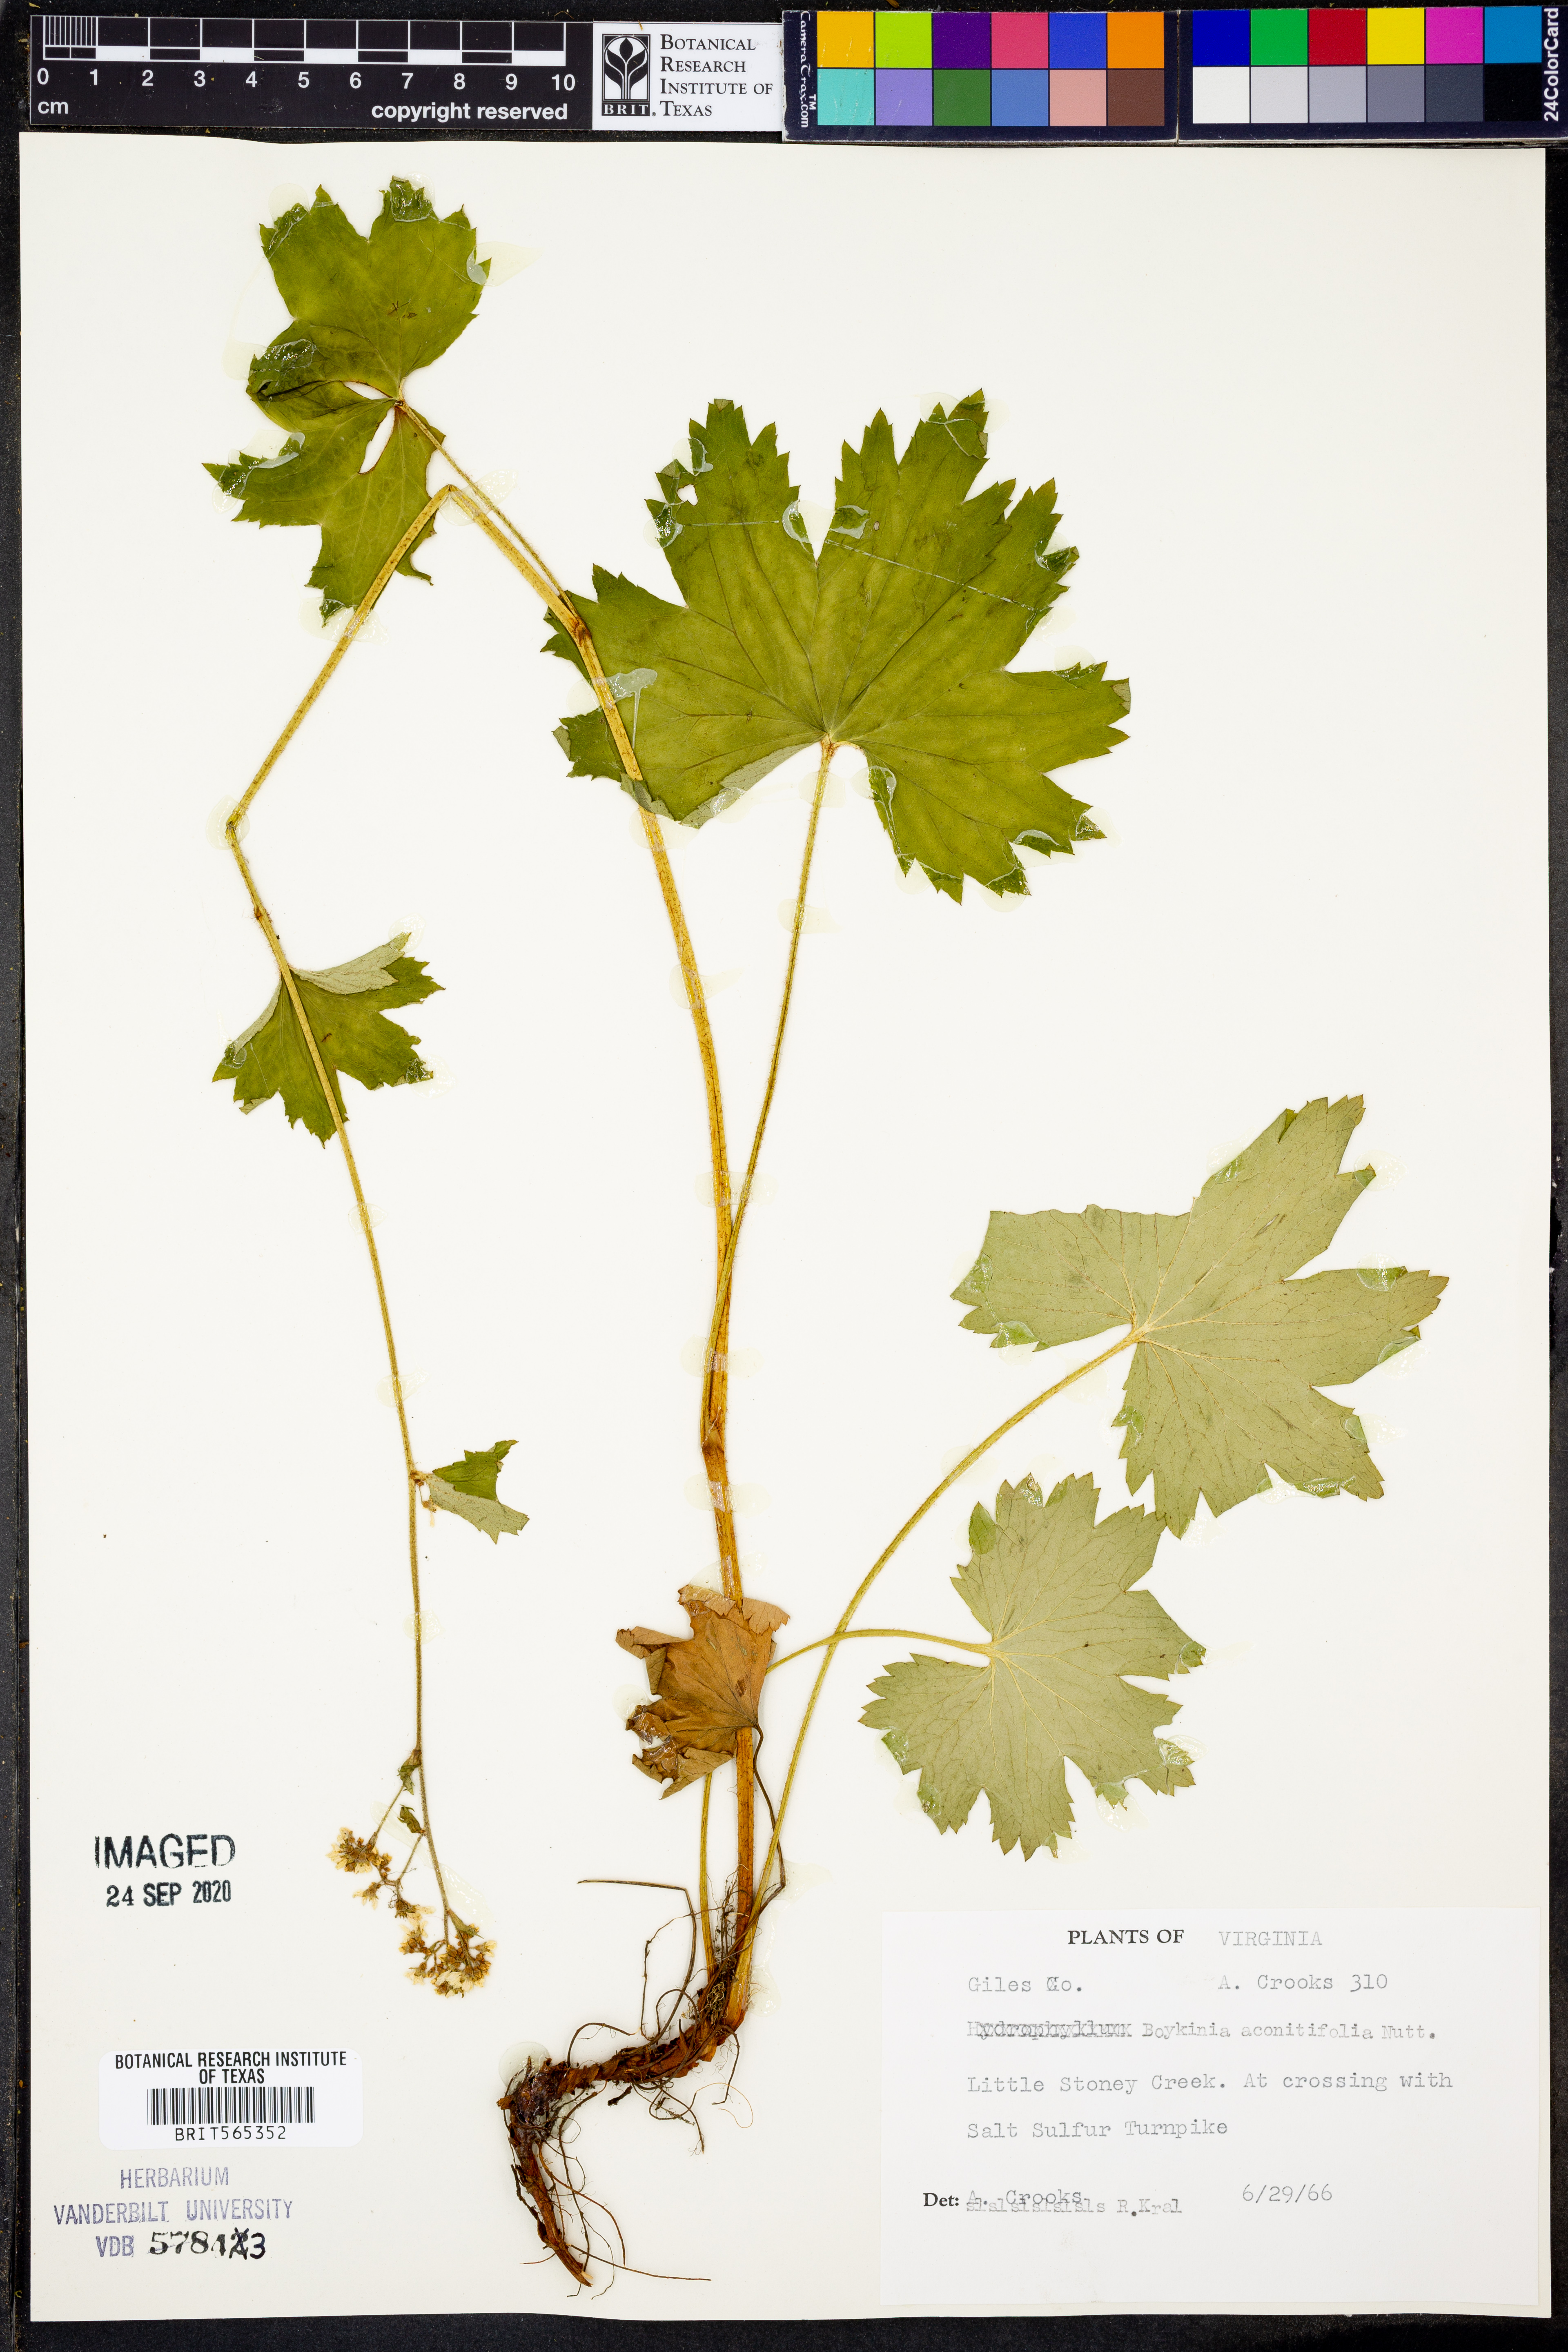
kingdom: Plantae
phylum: Tracheophyta
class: Magnoliopsida
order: Saxifragales
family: Saxifragaceae
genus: Boykinia
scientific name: Boykinia aconitifolia
